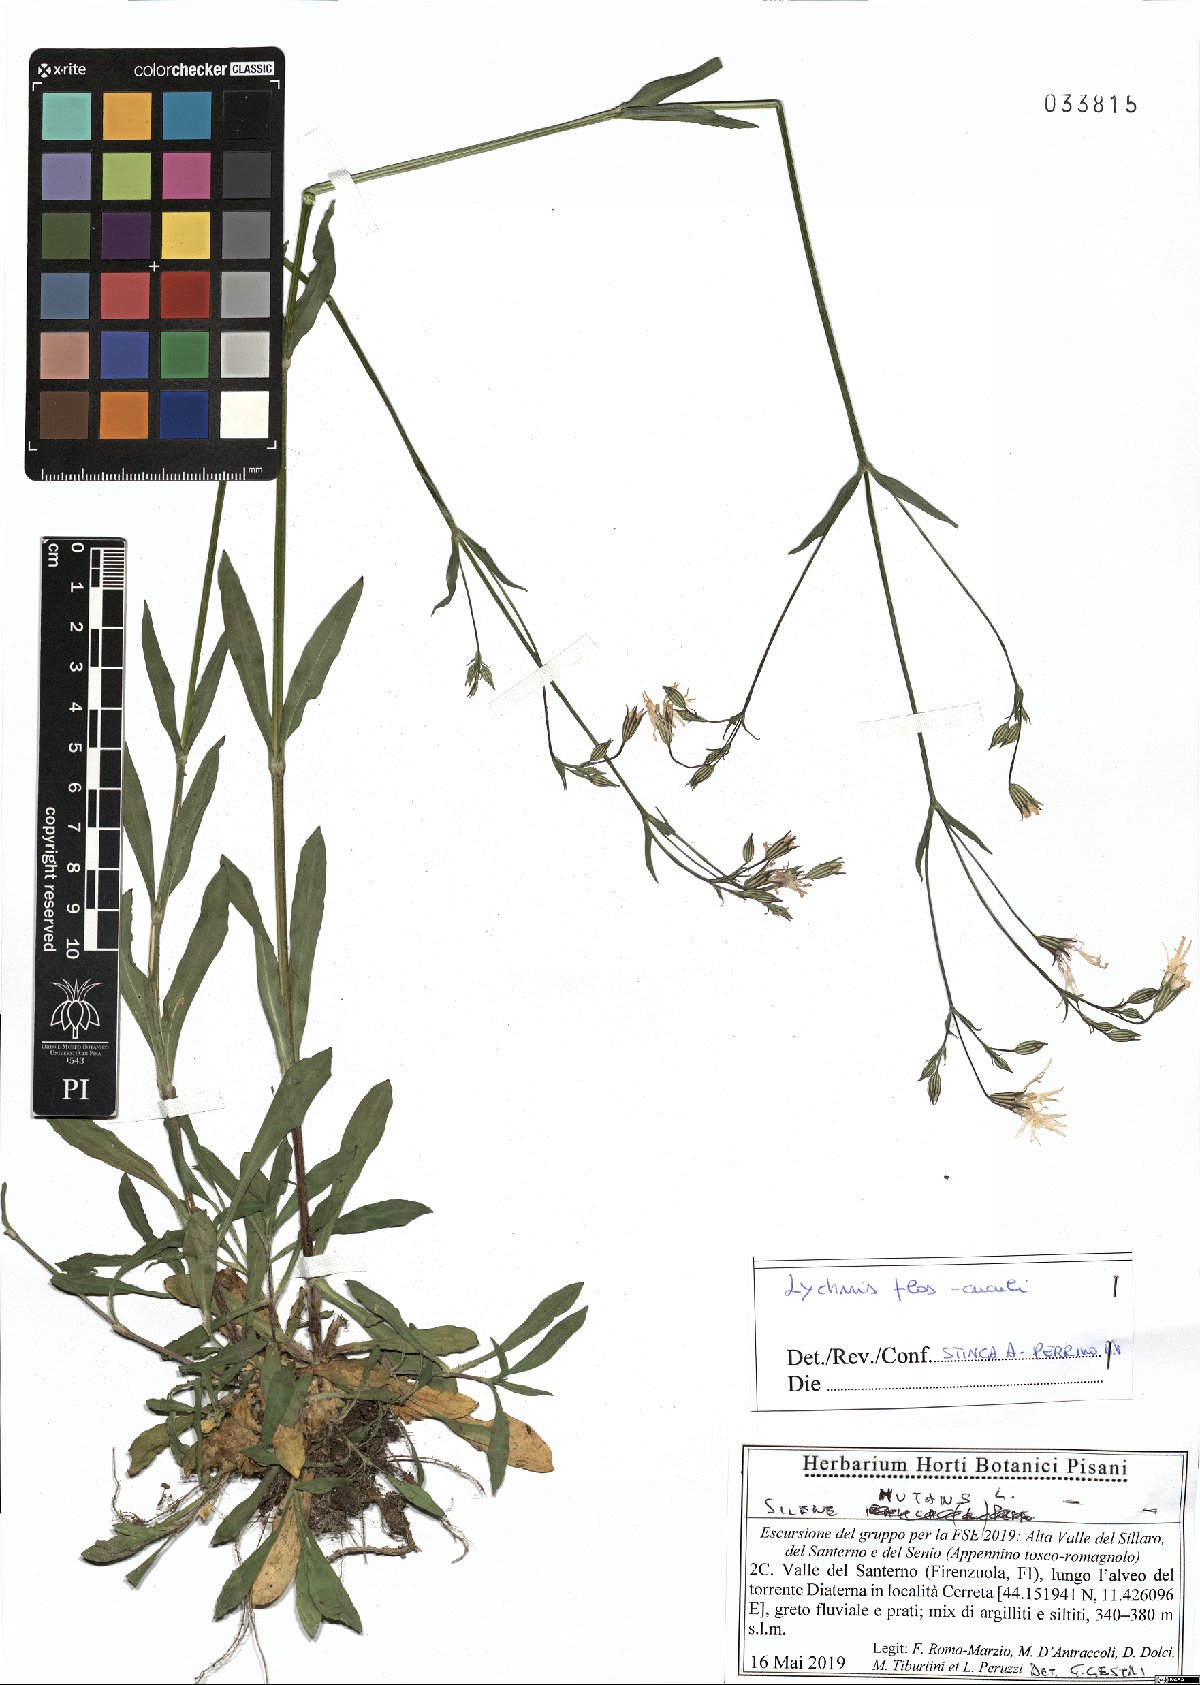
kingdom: Plantae
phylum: Tracheophyta
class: Magnoliopsida
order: Caryophyllales
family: Caryophyllaceae
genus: Silene
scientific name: Silene flos-cuculi
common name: Ragged-robin
